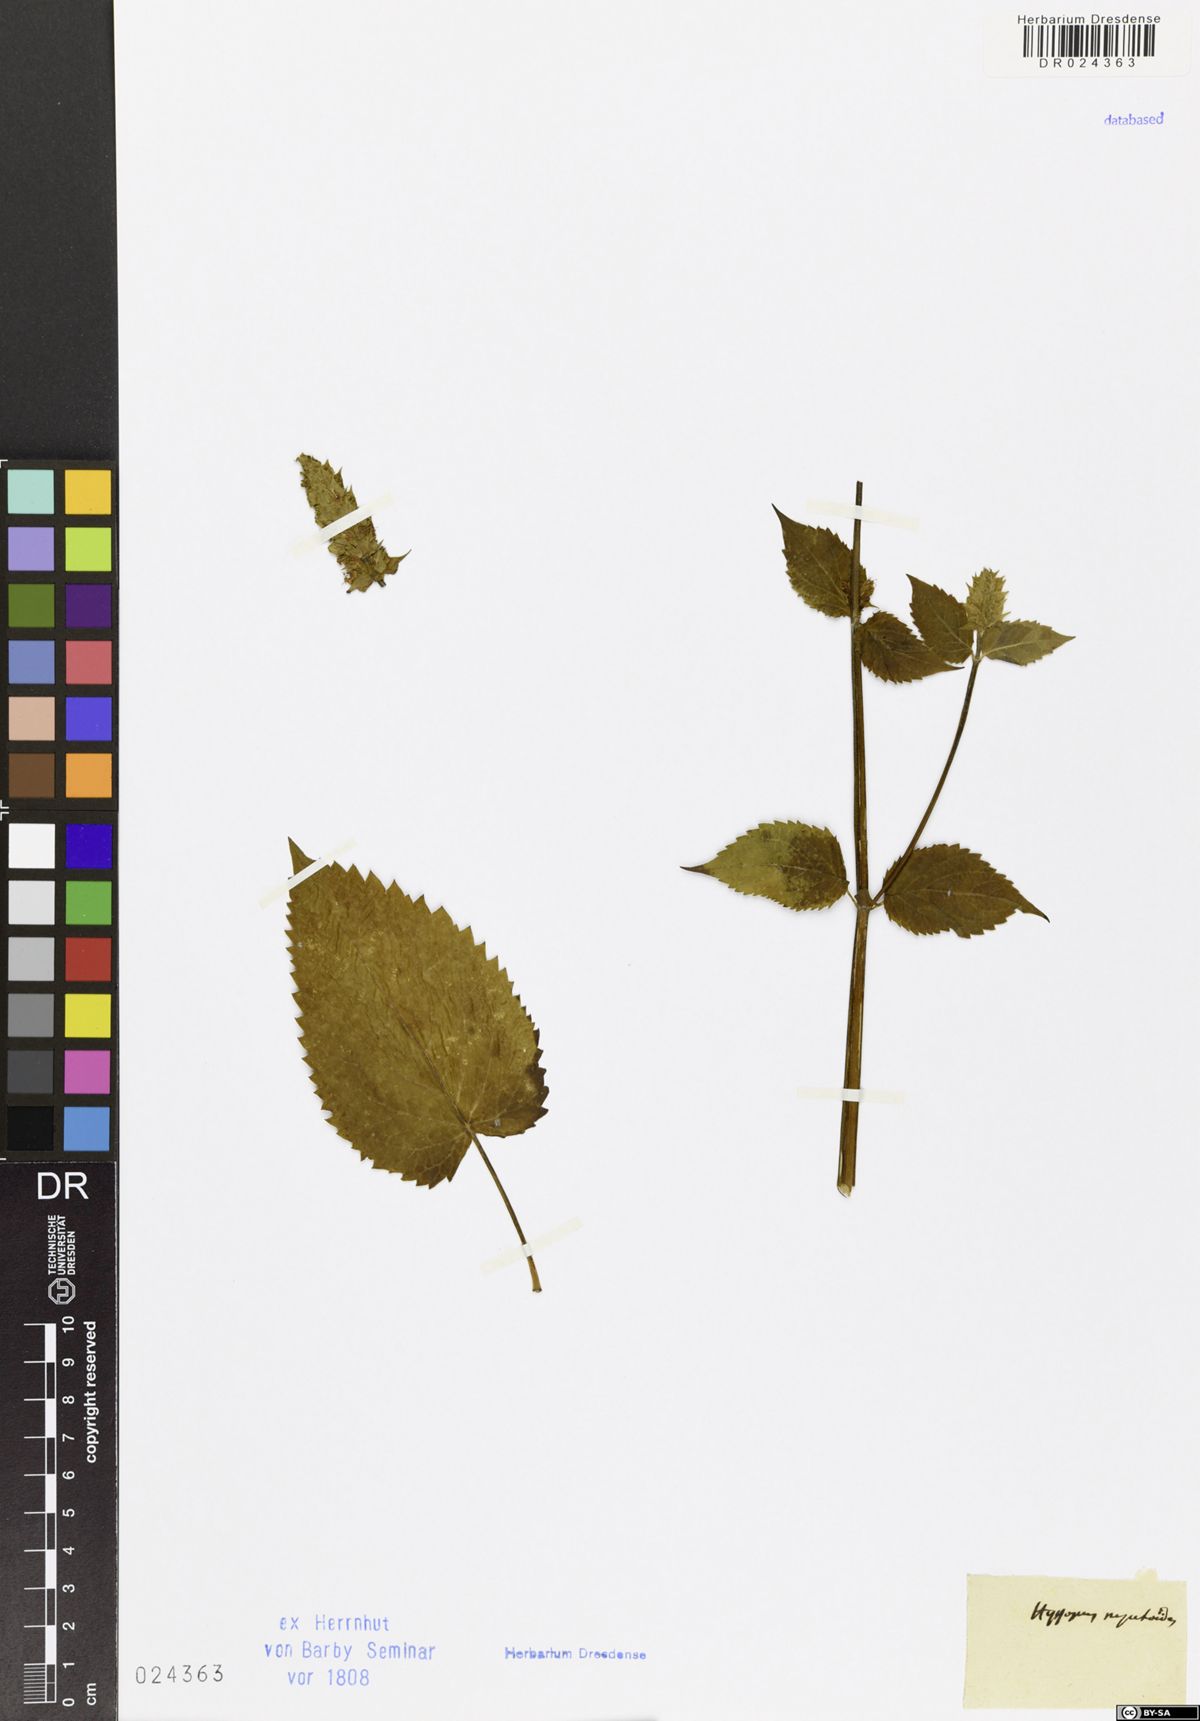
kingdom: Plantae
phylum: Tracheophyta
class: Magnoliopsida
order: Lamiales
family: Lamiaceae
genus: Agastache
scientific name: Agastache nepetoides
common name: Catnip giant hyssop
